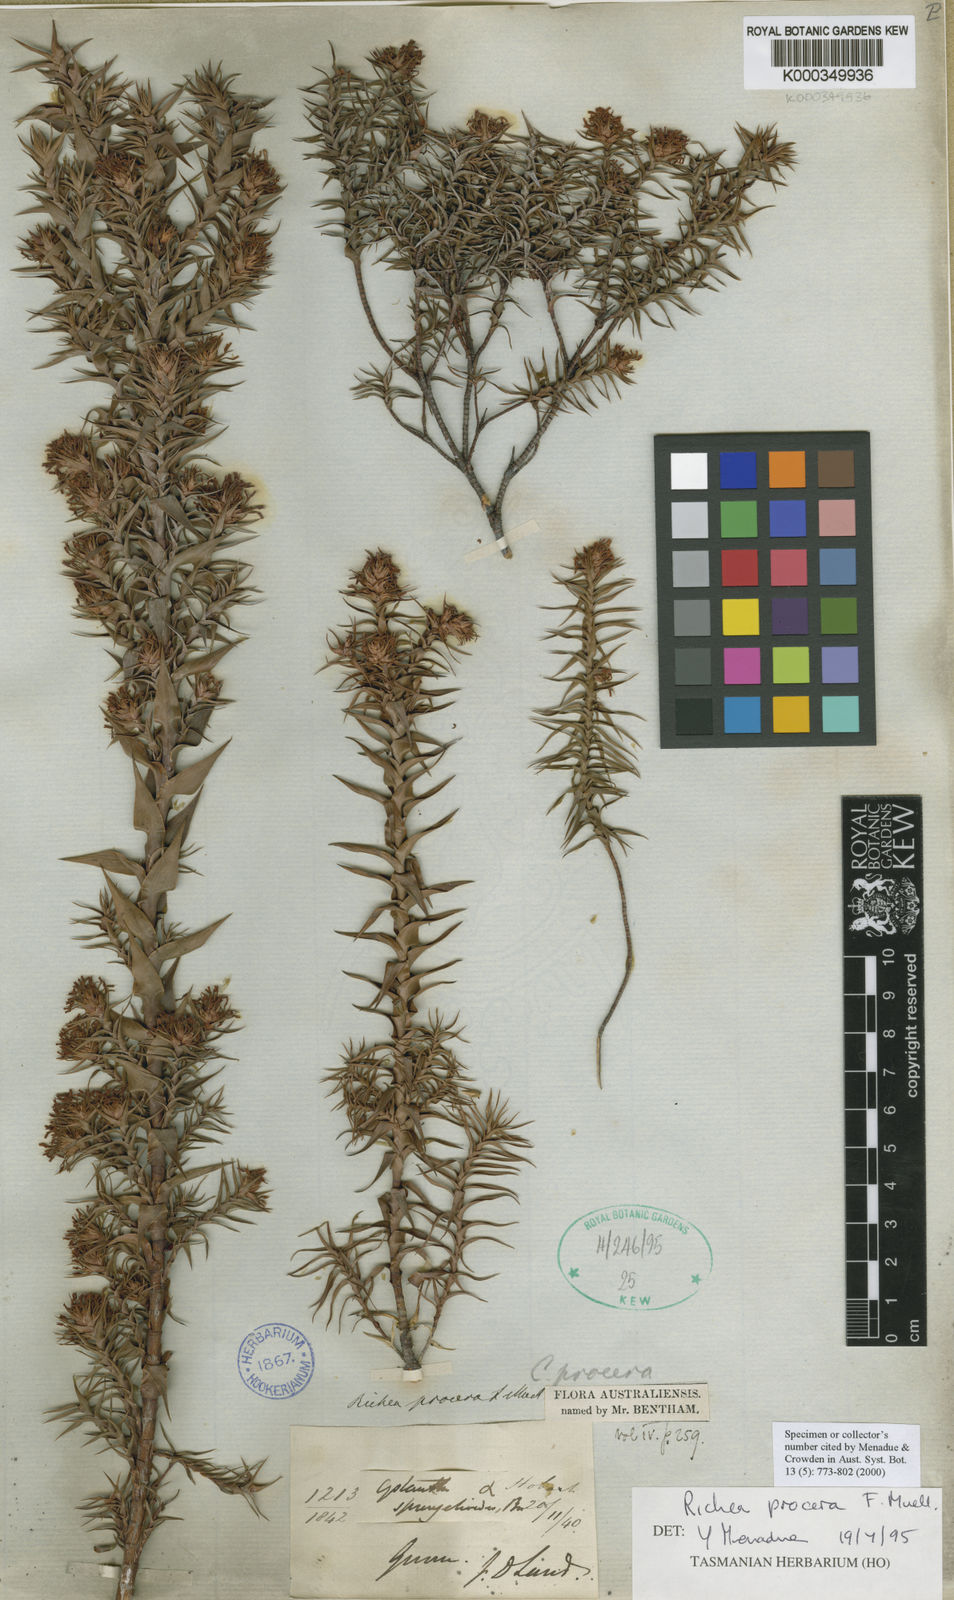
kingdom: Plantae
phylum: Tracheophyta
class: Magnoliopsida
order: Ericales
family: Ericaceae
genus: Dracophyllum
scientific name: Dracophyllum procerum
